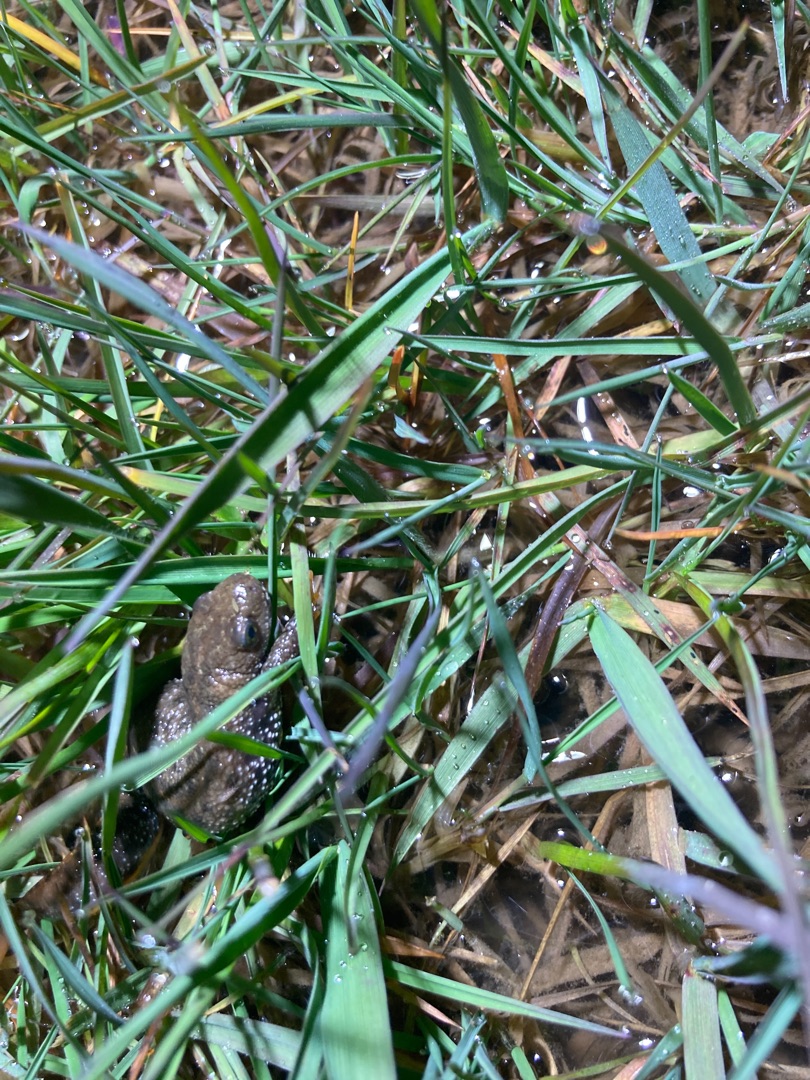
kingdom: Animalia
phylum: Chordata
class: Amphibia
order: Caudata
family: Salamandridae
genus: Triturus
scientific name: Triturus cristatus
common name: Stor vandsalamander
